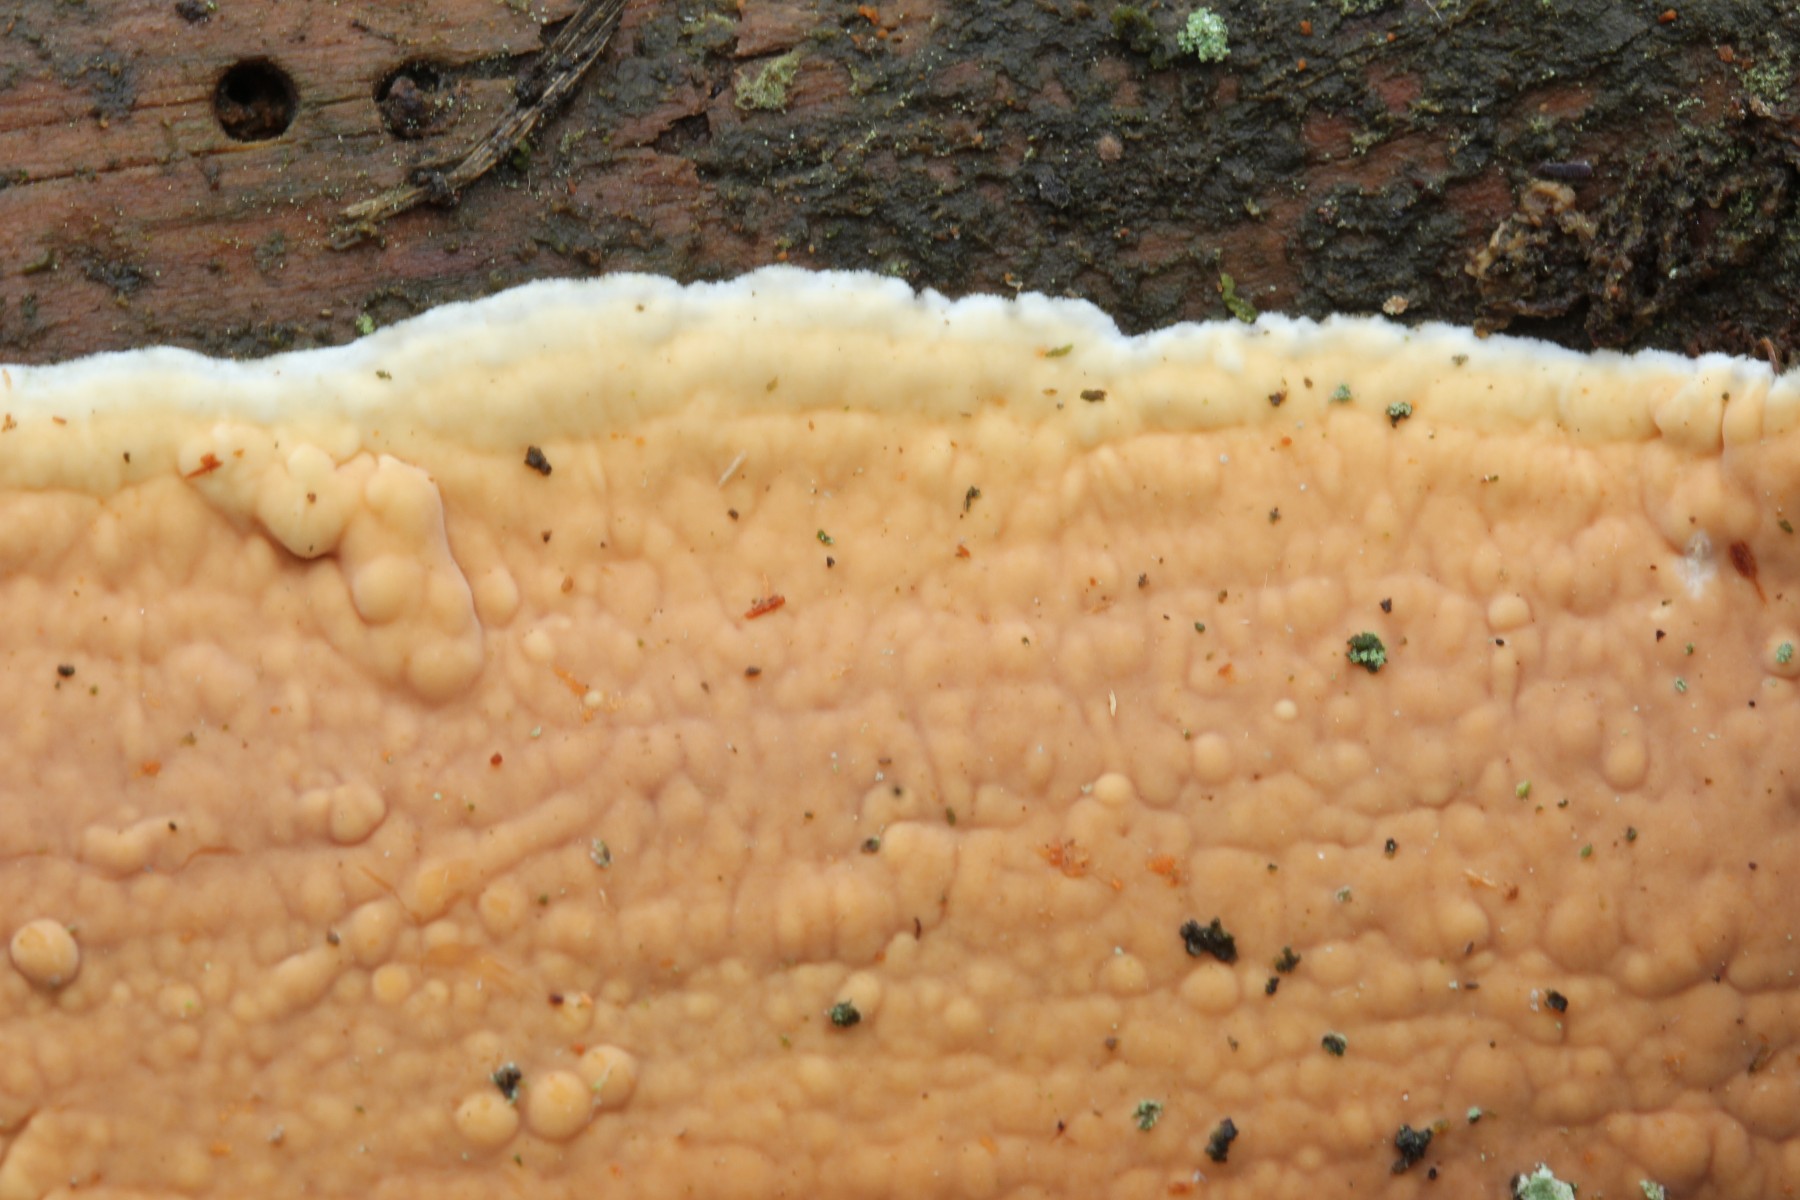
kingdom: Fungi
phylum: Basidiomycota
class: Agaricomycetes
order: Polyporales
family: Dacryobolaceae
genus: Dacryobolus
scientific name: Dacryobolus karstenii
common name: glat vulkanskorpe
